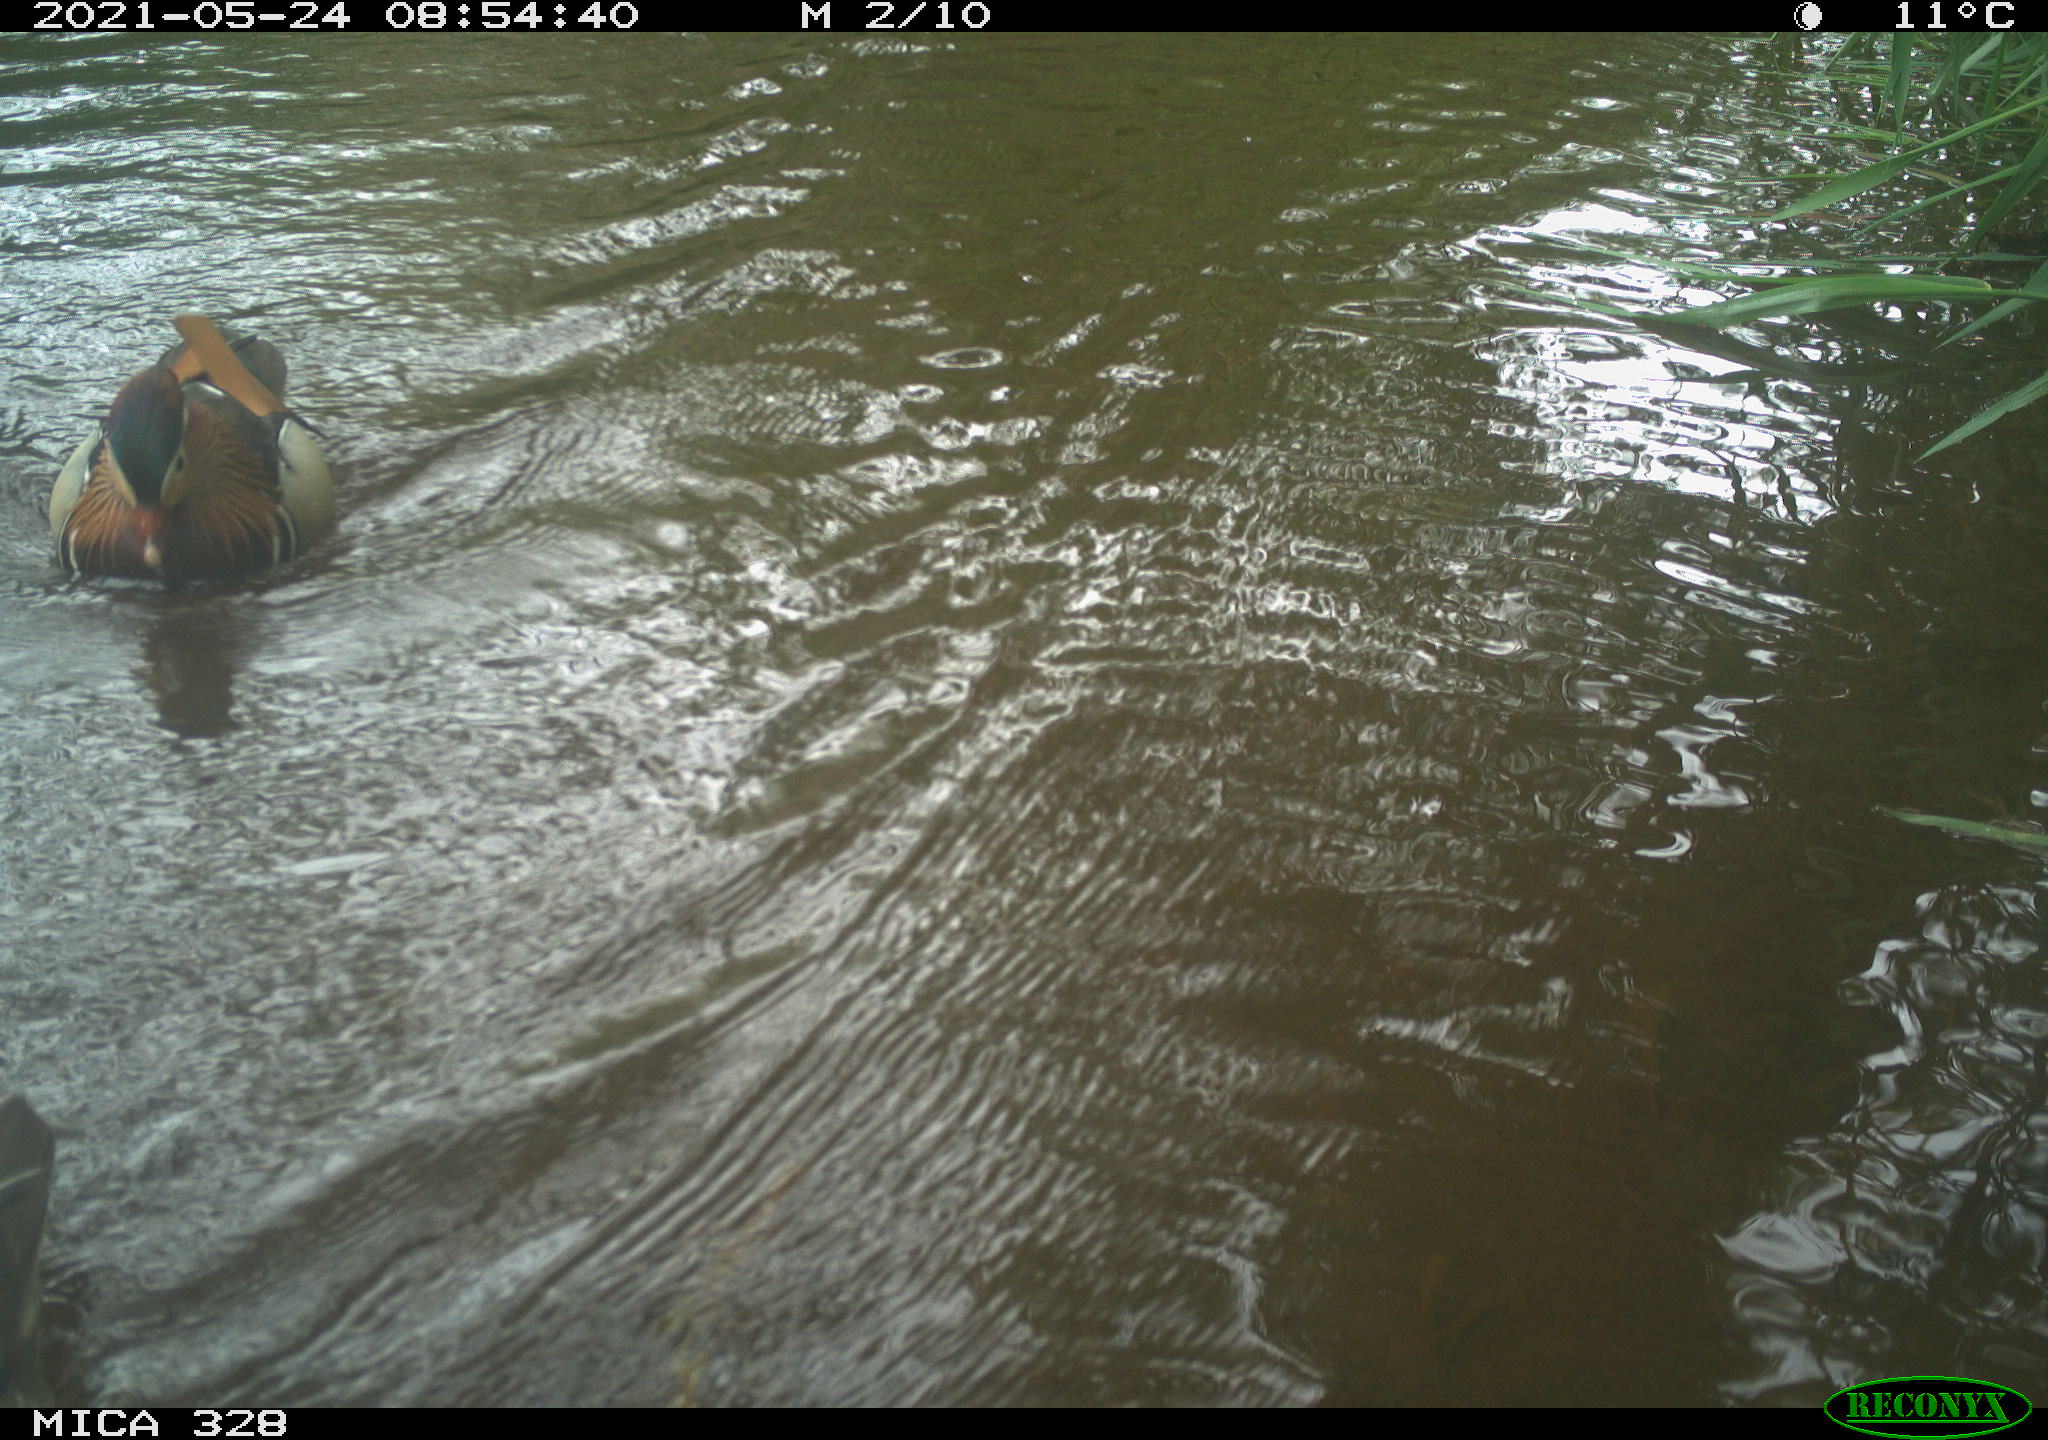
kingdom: Animalia
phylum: Chordata
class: Aves
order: Anseriformes
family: Anatidae
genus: Aix
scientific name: Aix galericulata
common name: Mandarin duck
